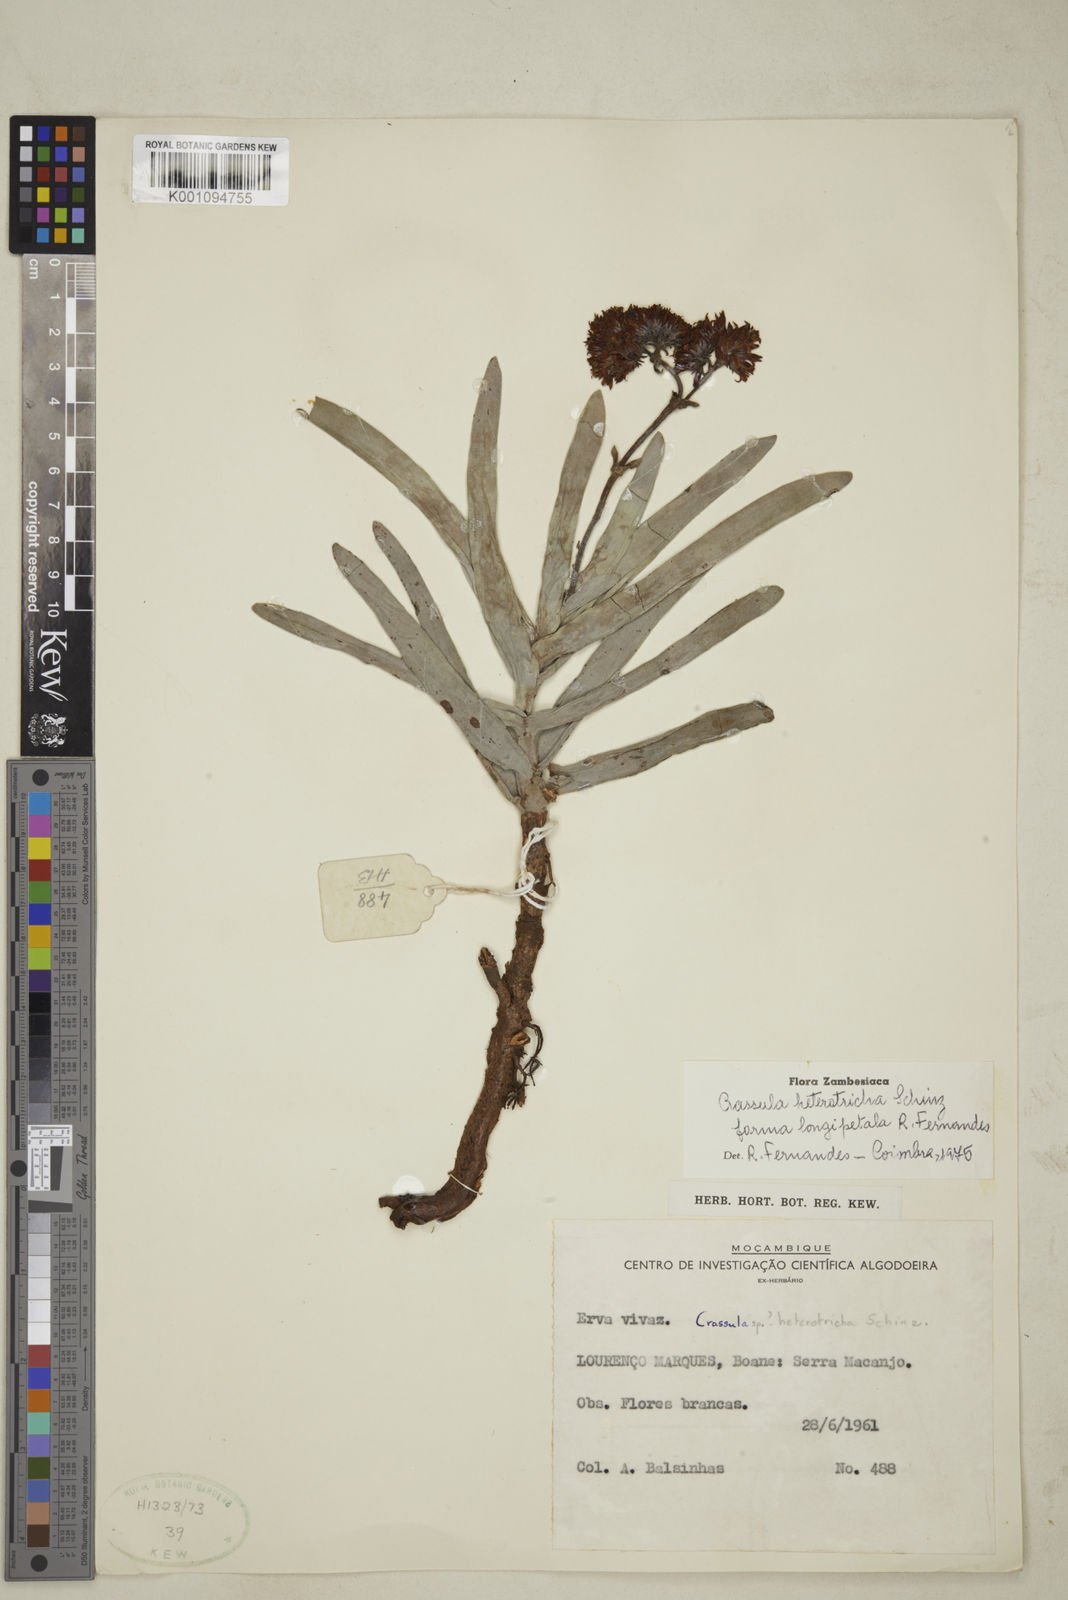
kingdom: Plantae
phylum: Tracheophyta
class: Magnoliopsida
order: Saxifragales
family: Crassulaceae
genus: Crassula
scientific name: Crassula perfoliata
